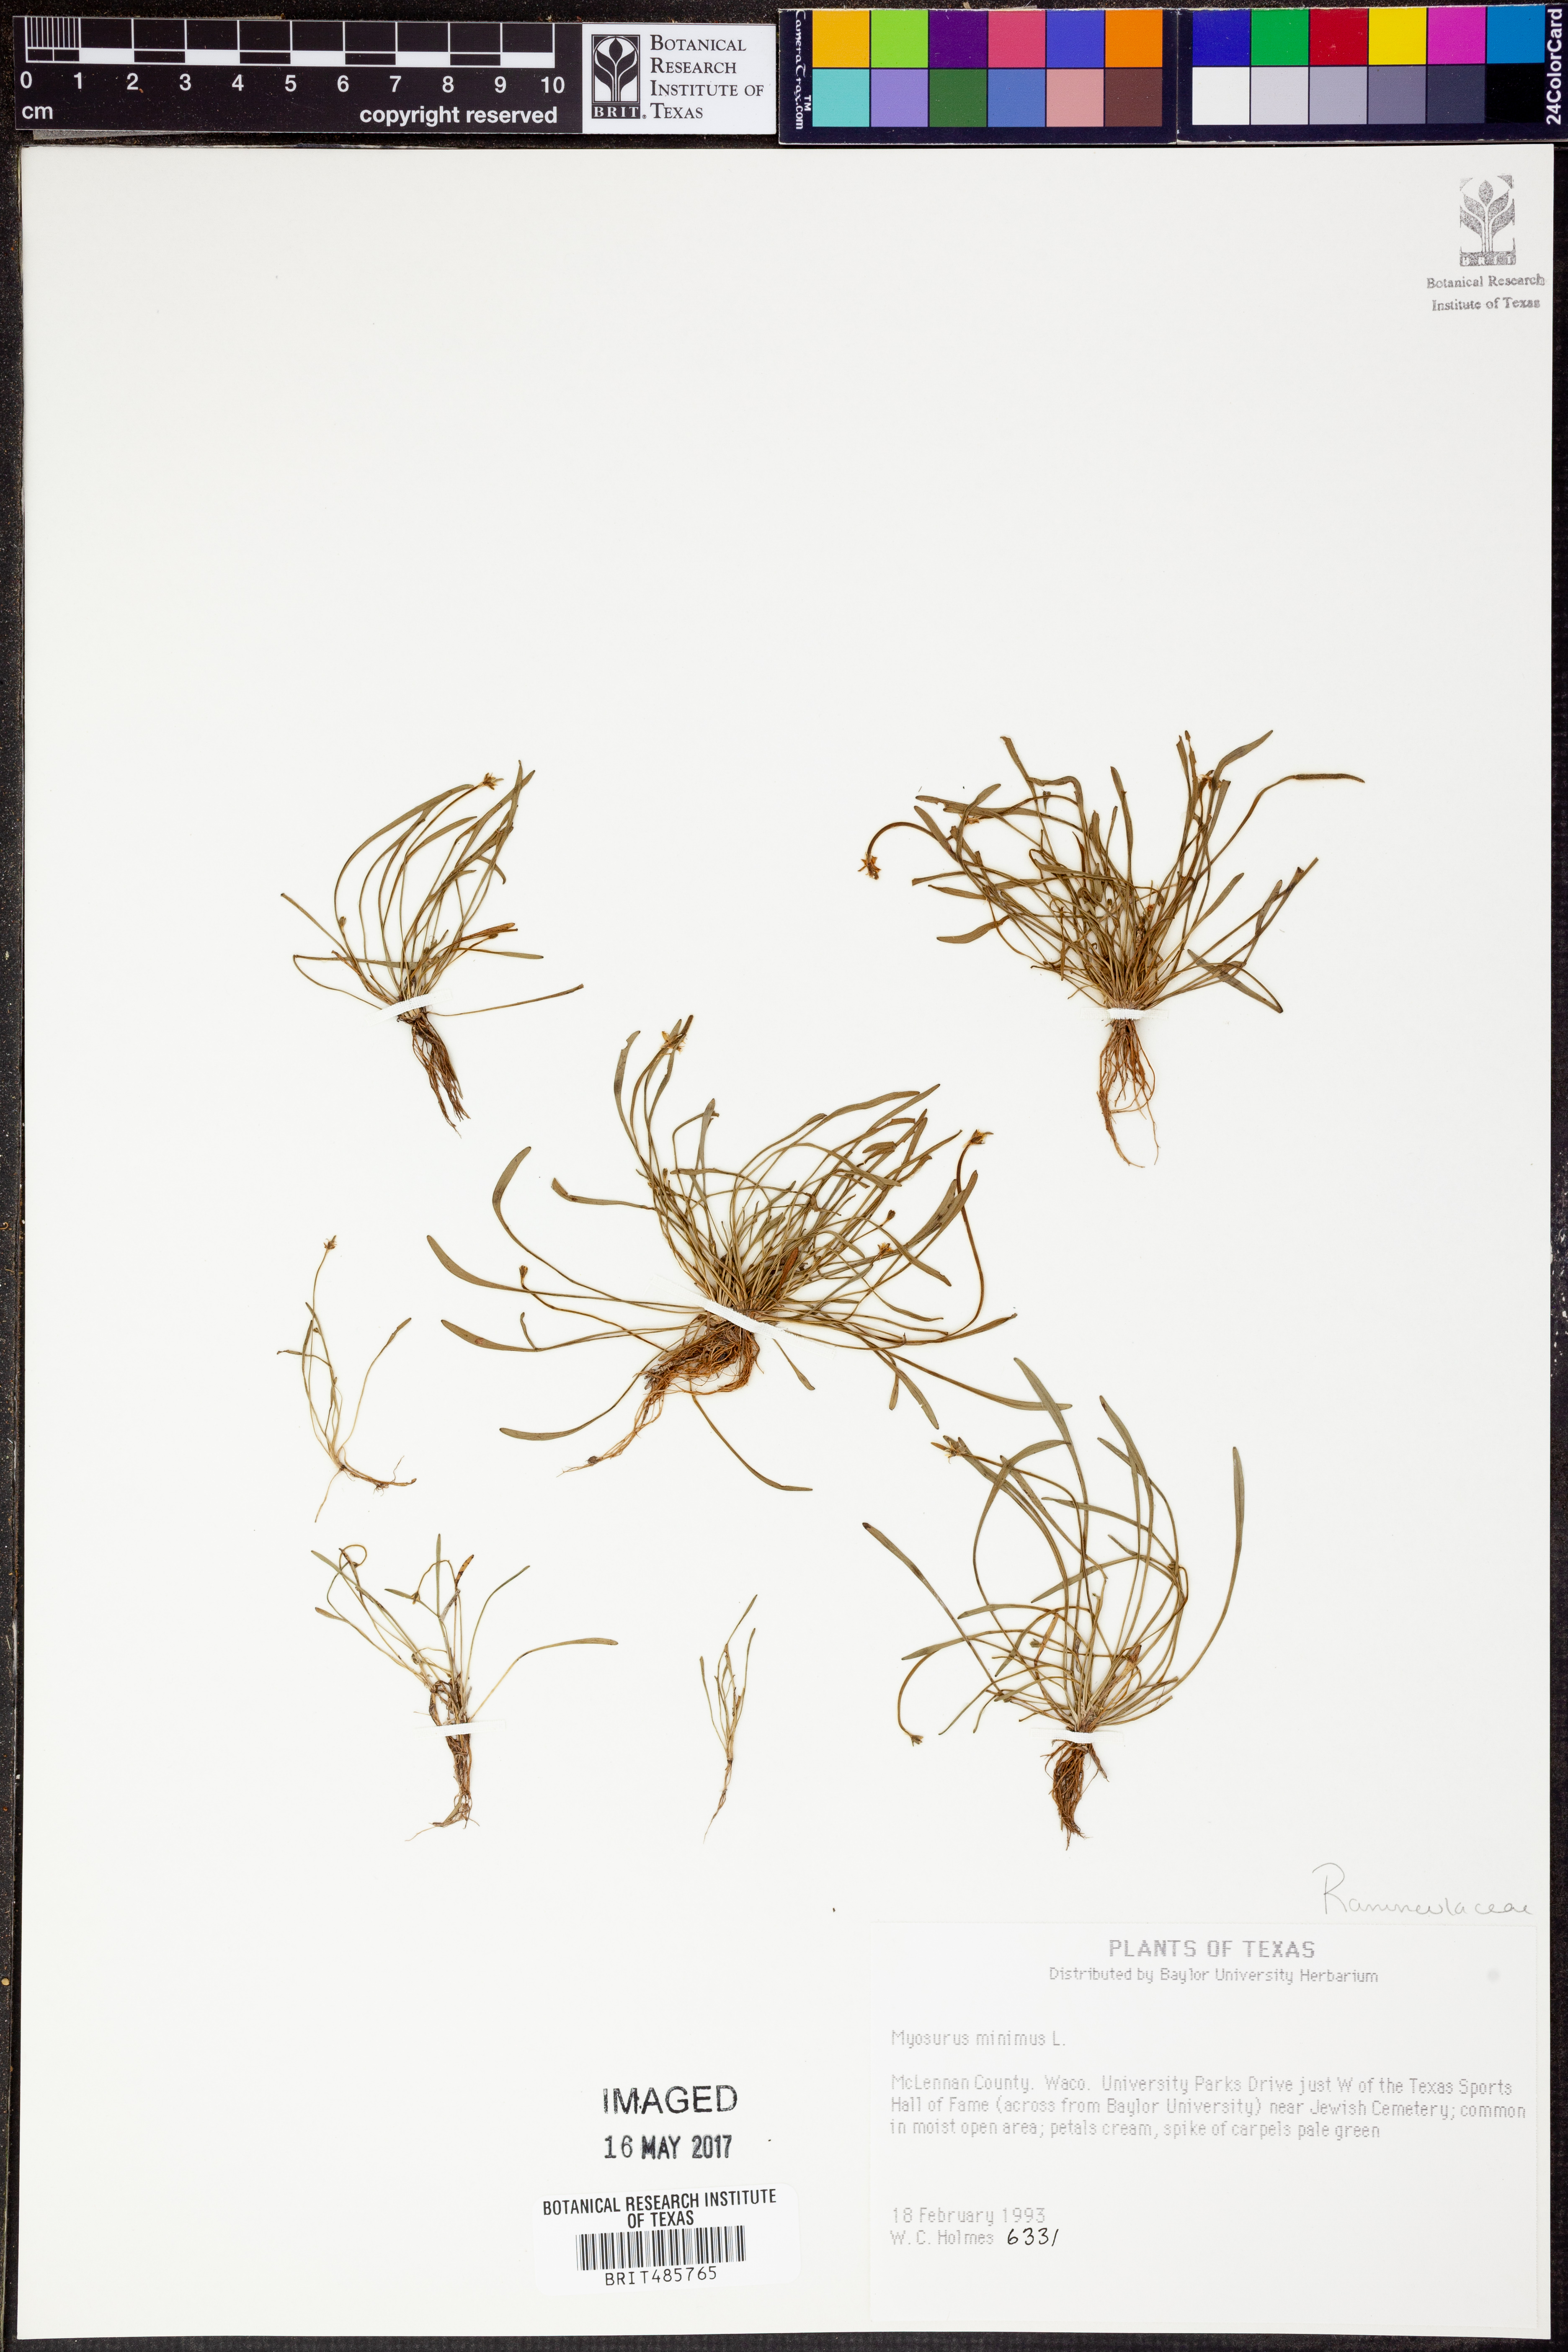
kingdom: Plantae
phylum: Tracheophyta
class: Magnoliopsida
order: Ranunculales
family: Ranunculaceae
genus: Myosurus
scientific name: Myosurus minimus
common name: Mousetail
